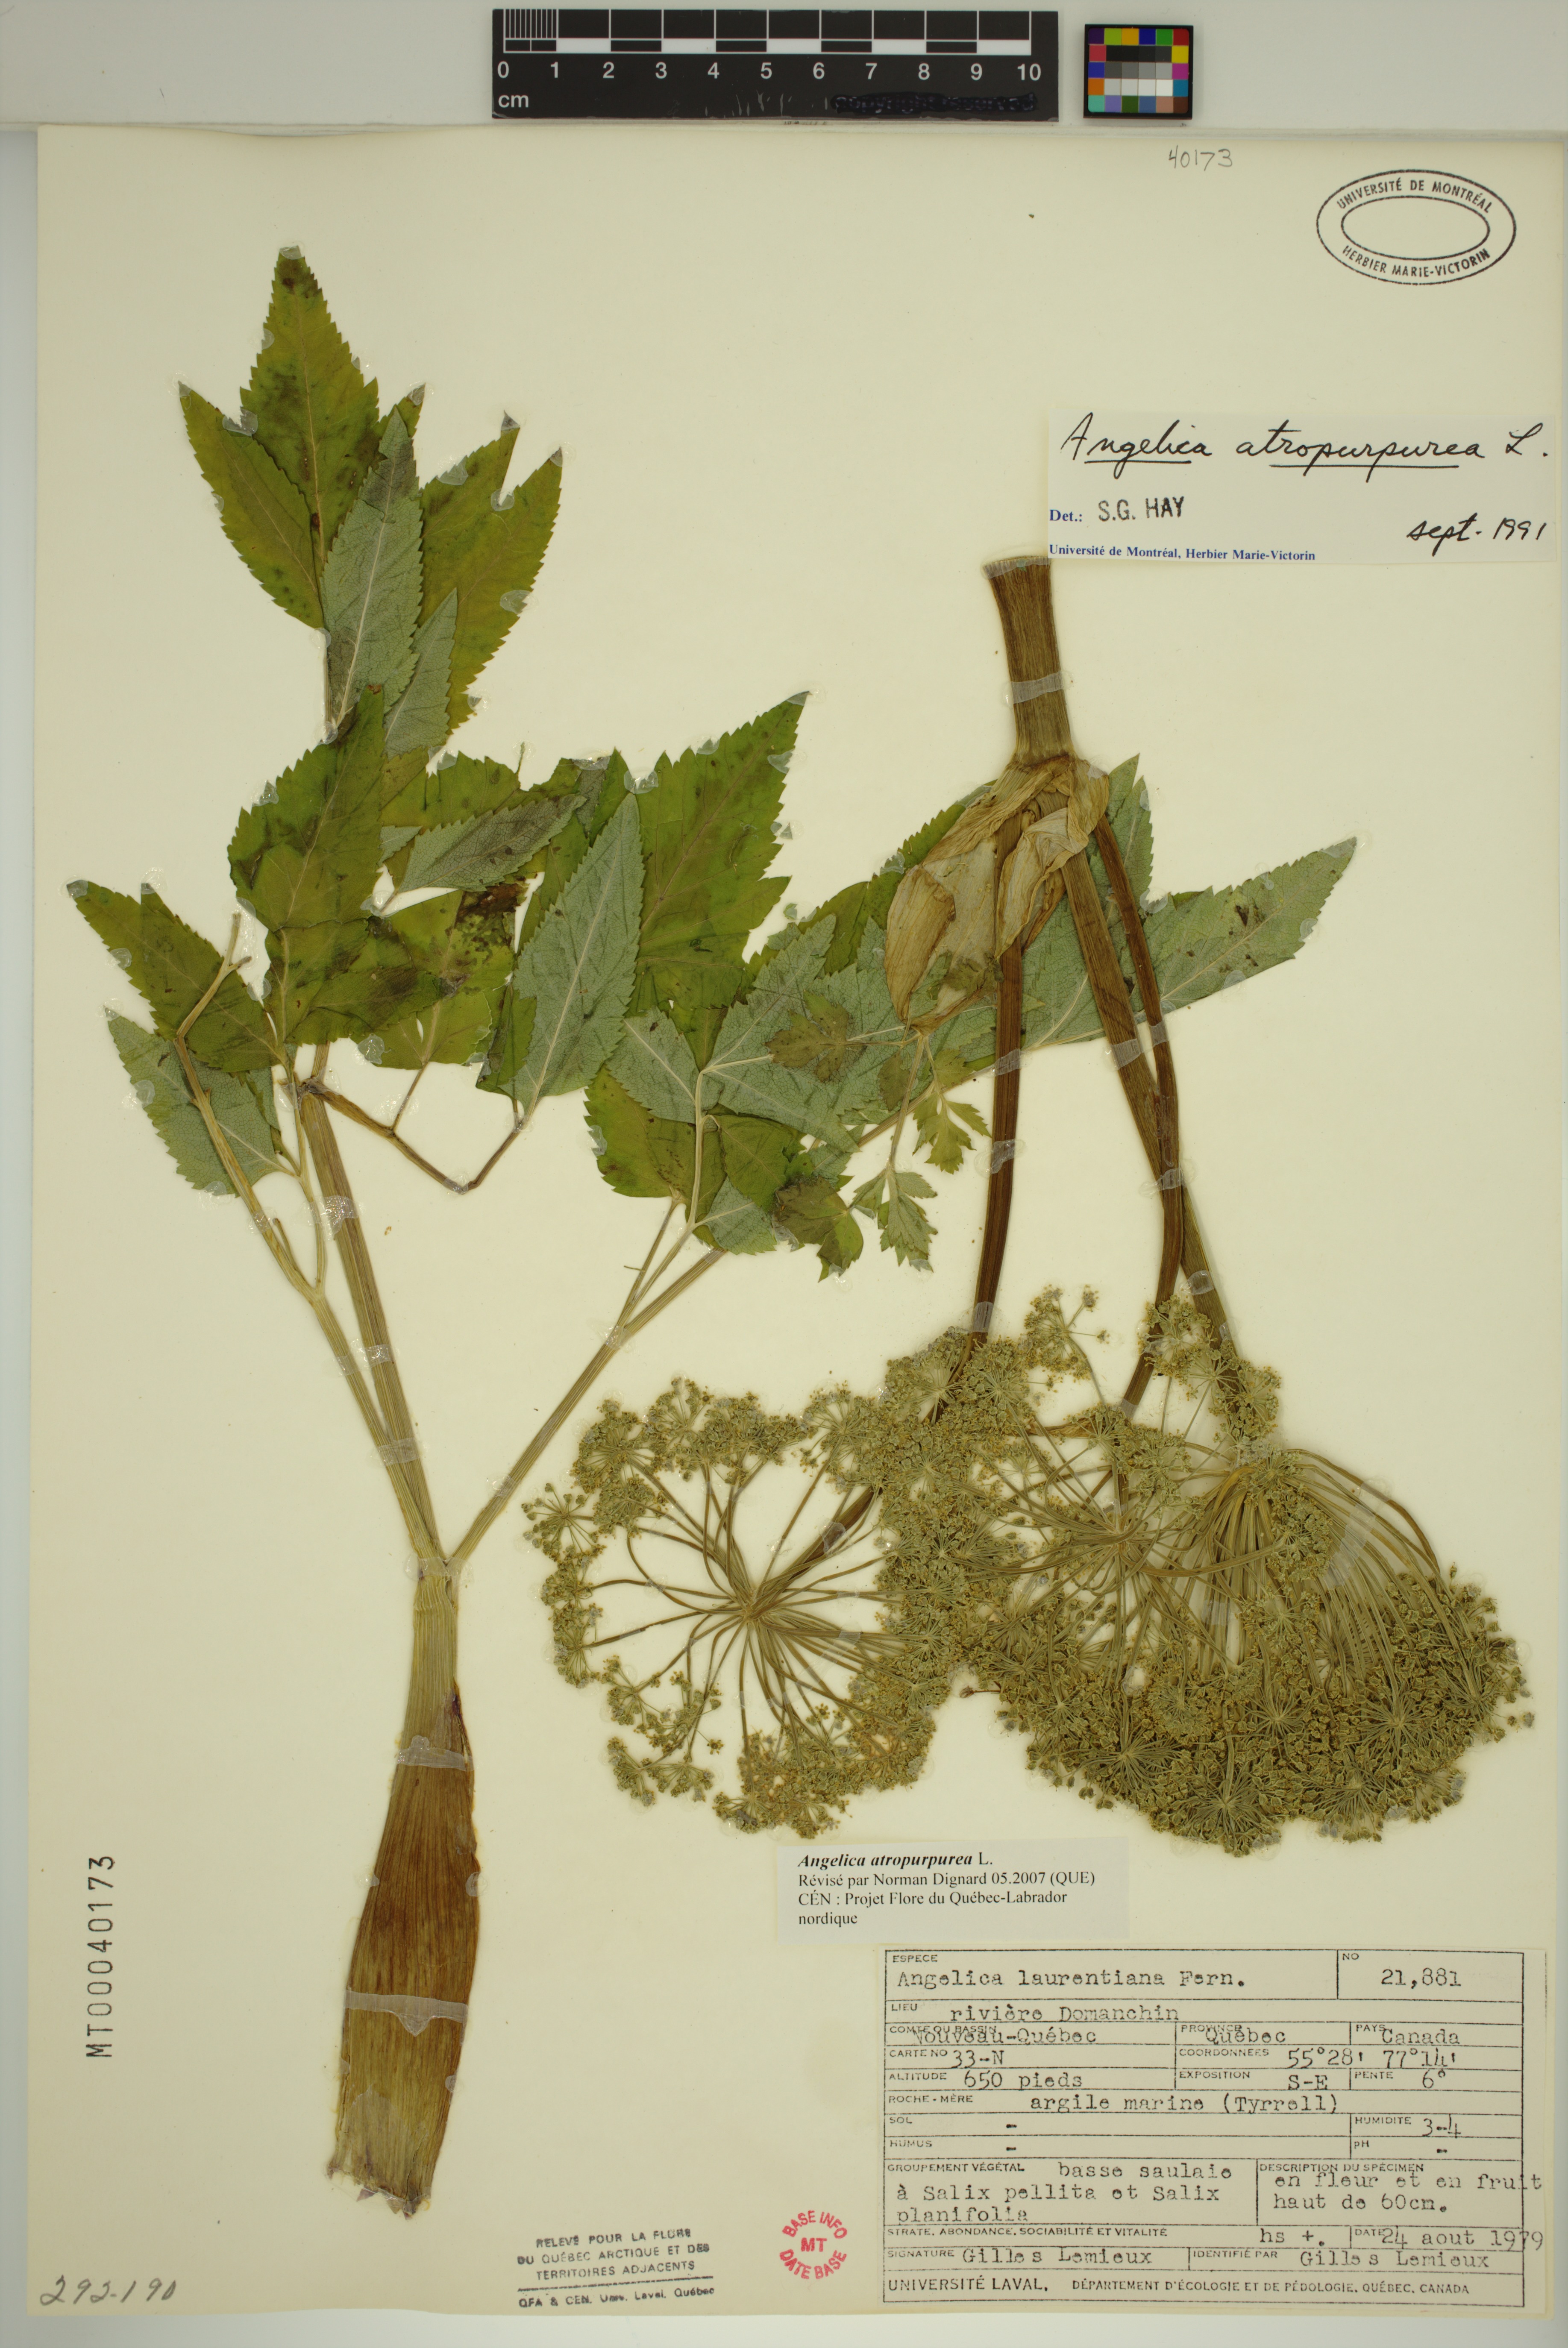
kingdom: Plantae
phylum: Tracheophyta
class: Magnoliopsida
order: Apiales
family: Apiaceae
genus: Angelica
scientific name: Angelica atropurpurea
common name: Great angelica
